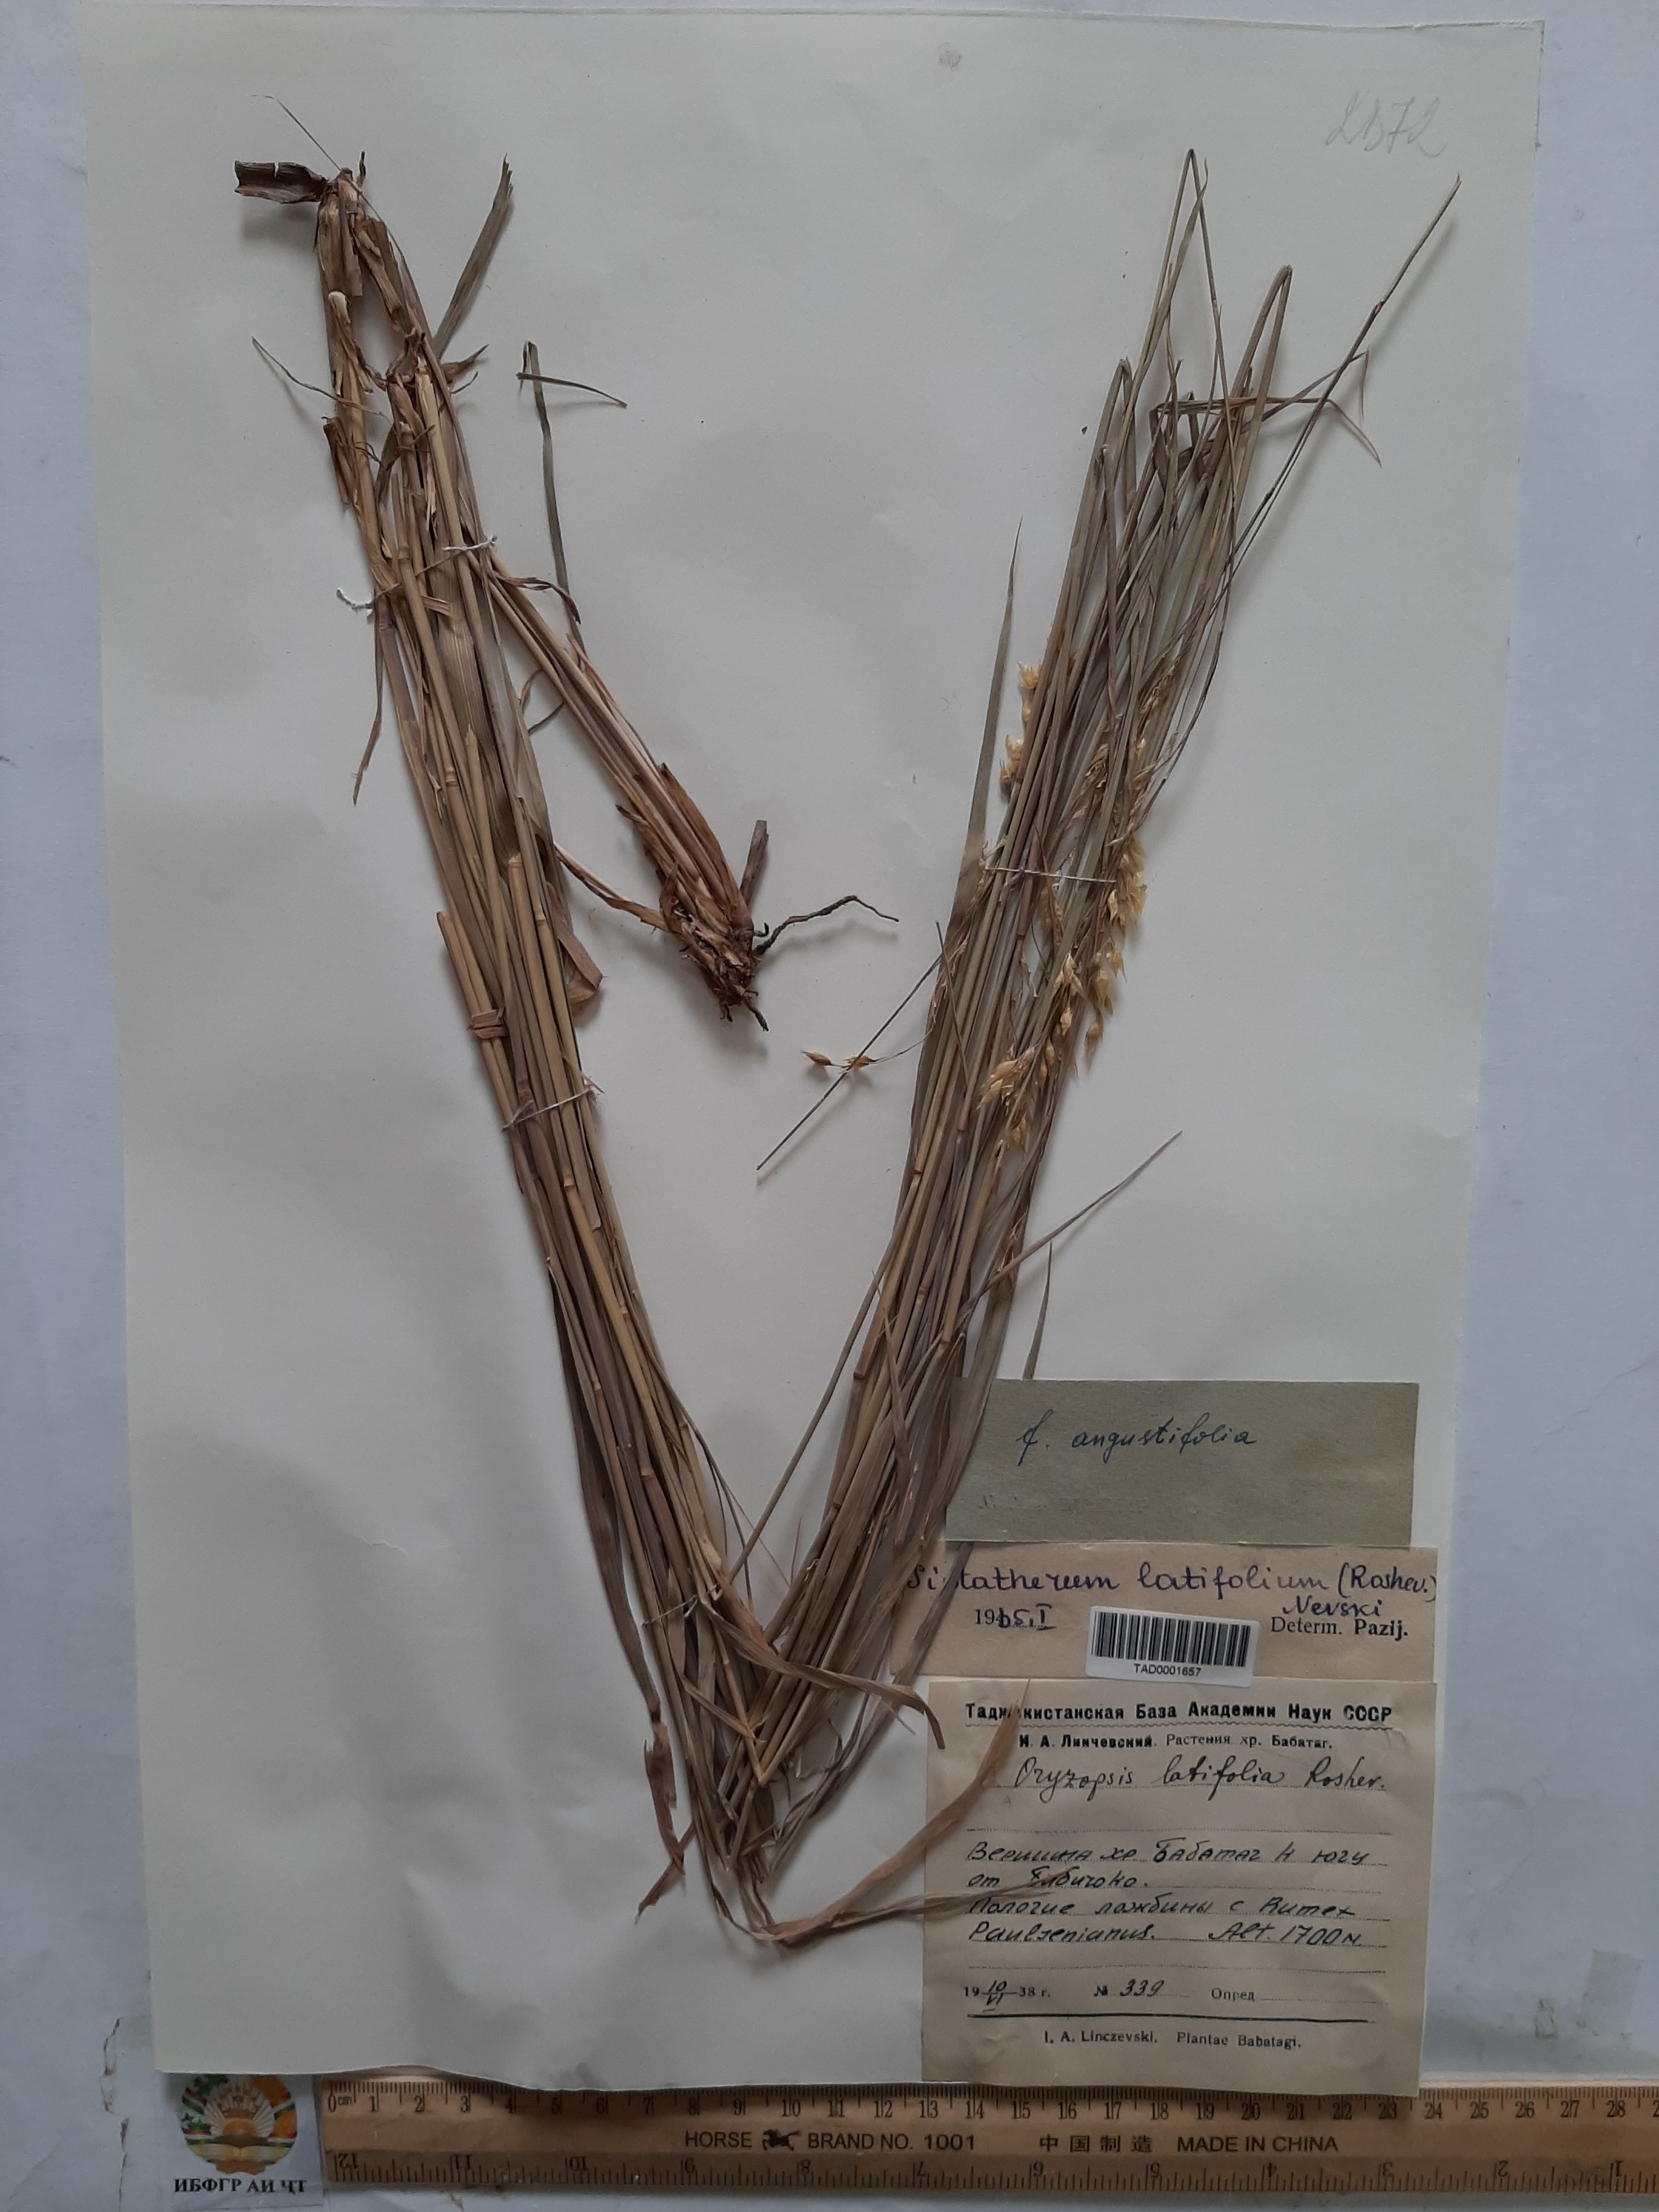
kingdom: Plantae
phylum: Tracheophyta
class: Liliopsida
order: Poales
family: Poaceae
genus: Piptatherum
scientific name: Piptatherum latifolium
